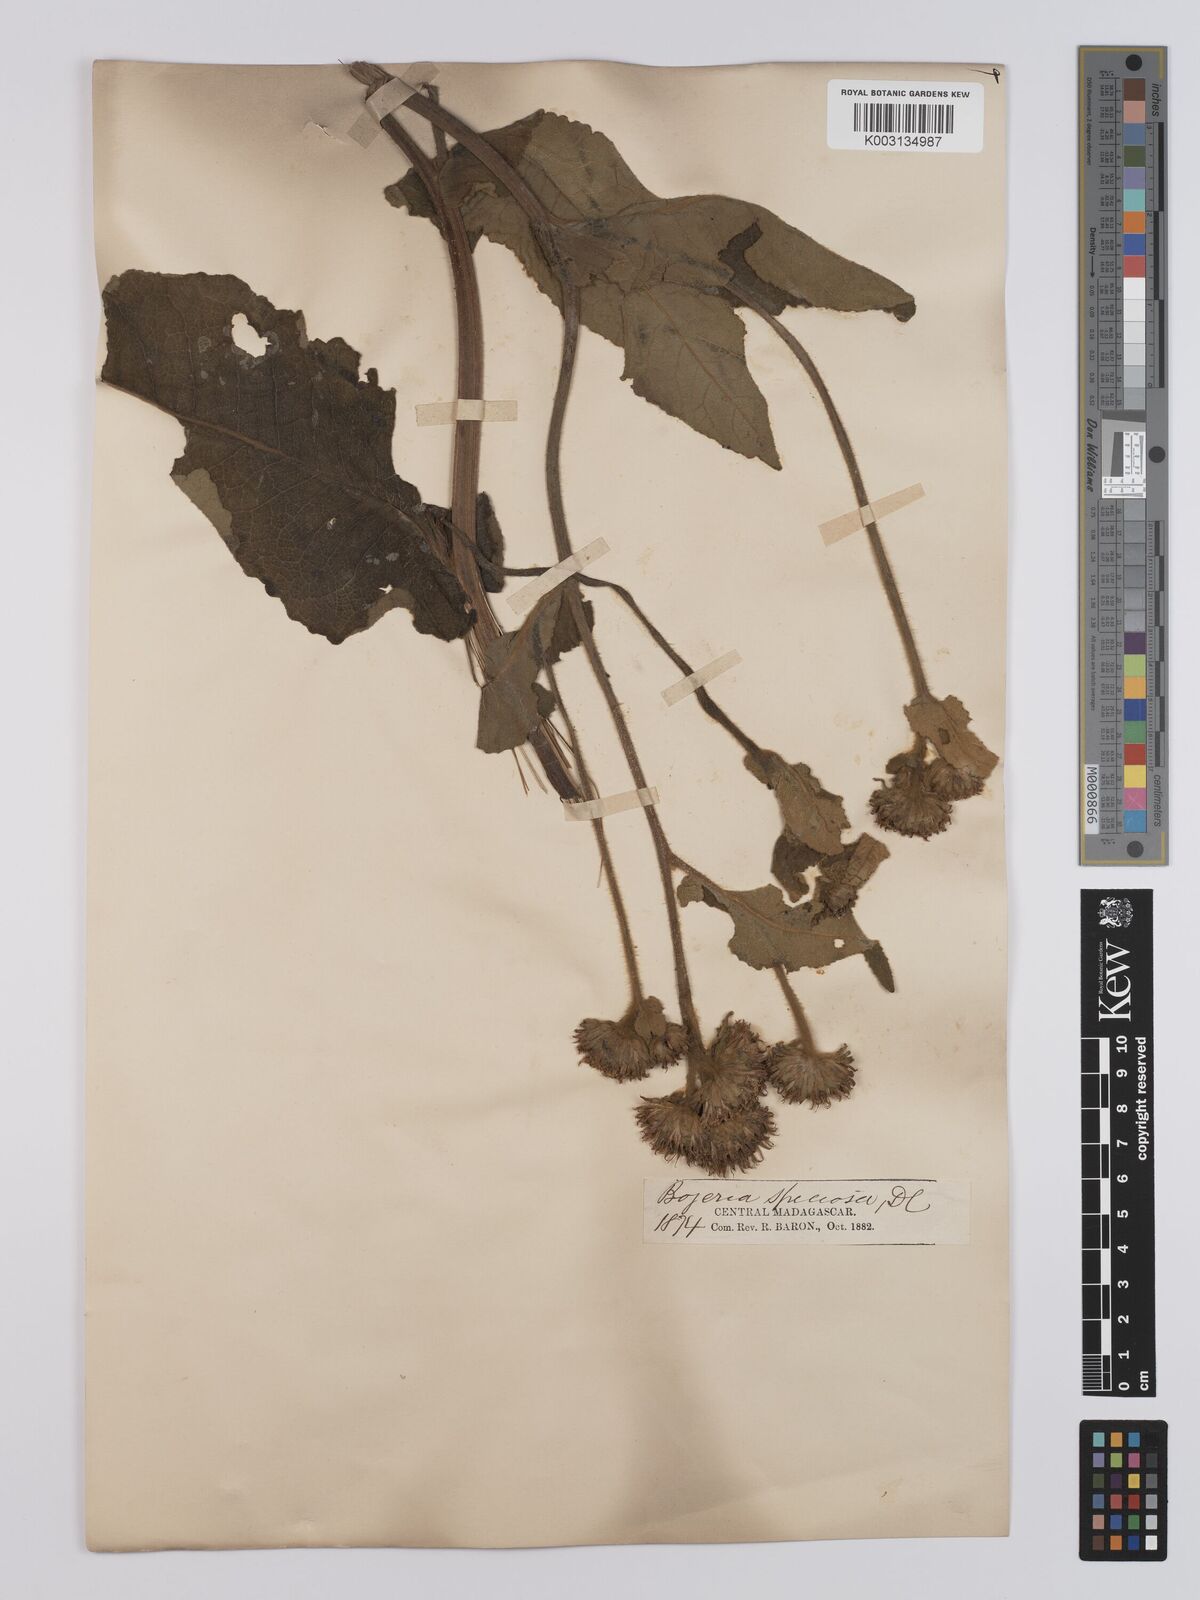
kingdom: Plantae
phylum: Tracheophyta
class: Magnoliopsida
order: Asterales
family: Asteraceae
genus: Inula
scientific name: Inula speciosa
